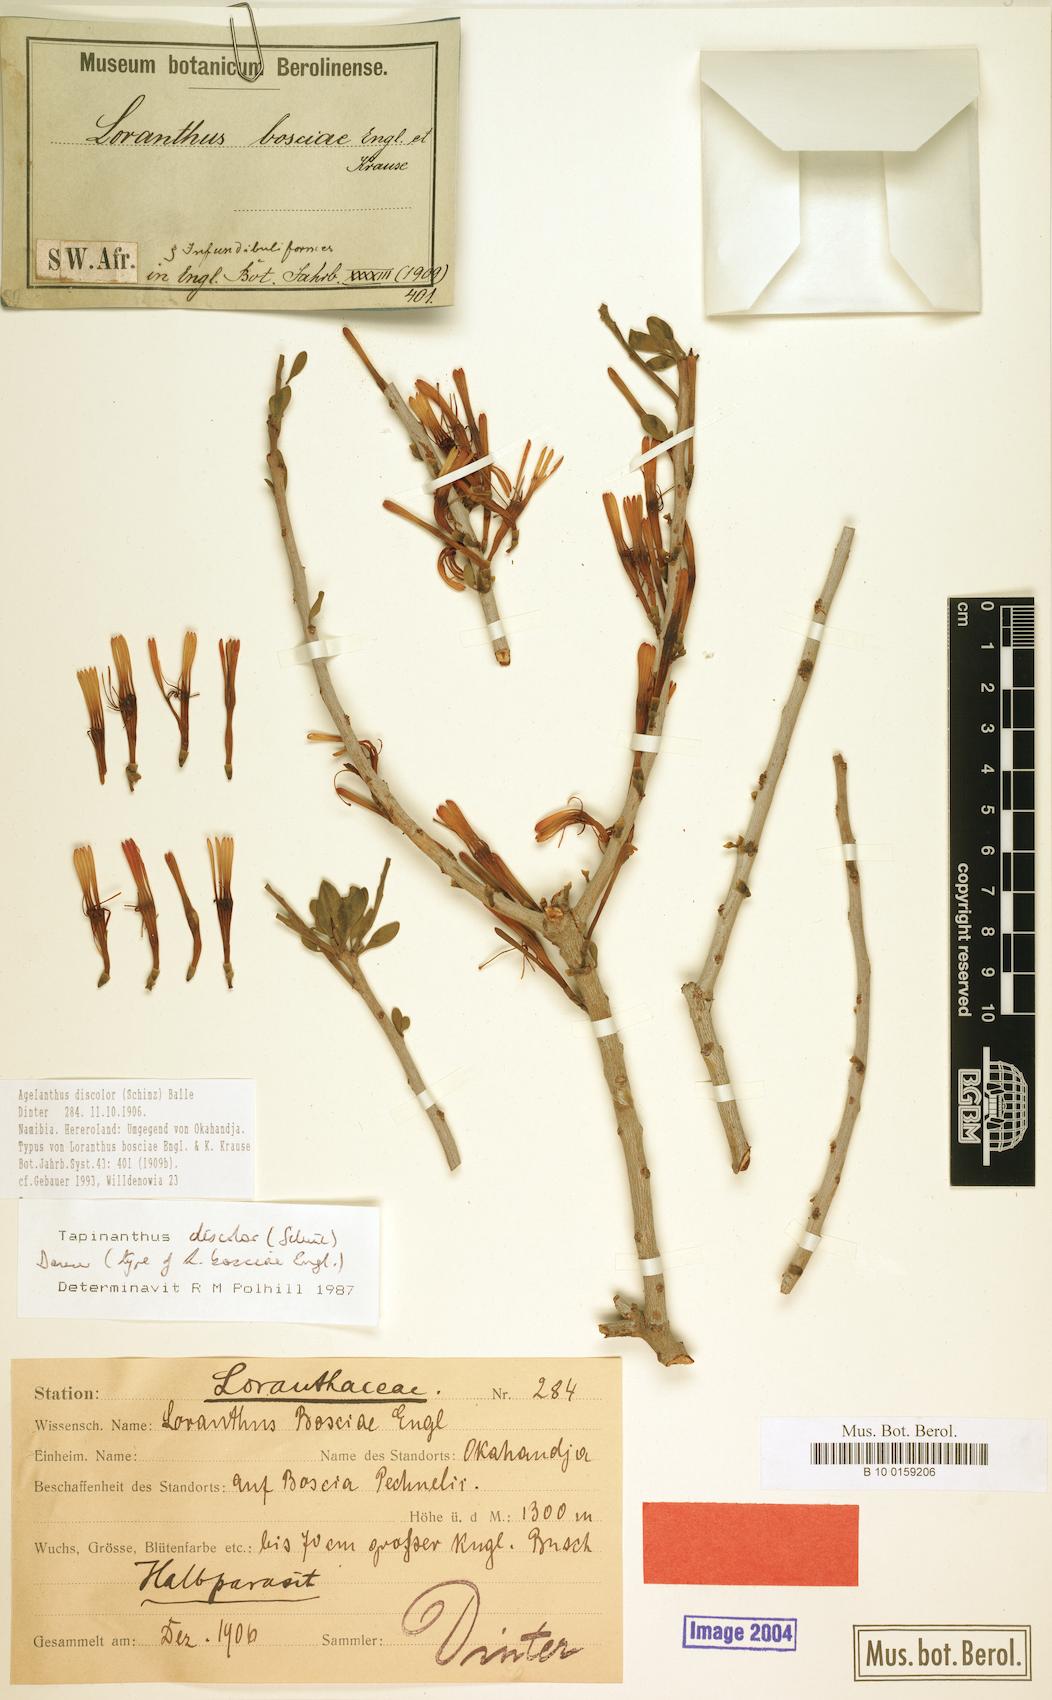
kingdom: Plantae
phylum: Tracheophyta
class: Magnoliopsida
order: Santalales
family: Loranthaceae
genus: Agelanthus
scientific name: Agelanthus discolor
